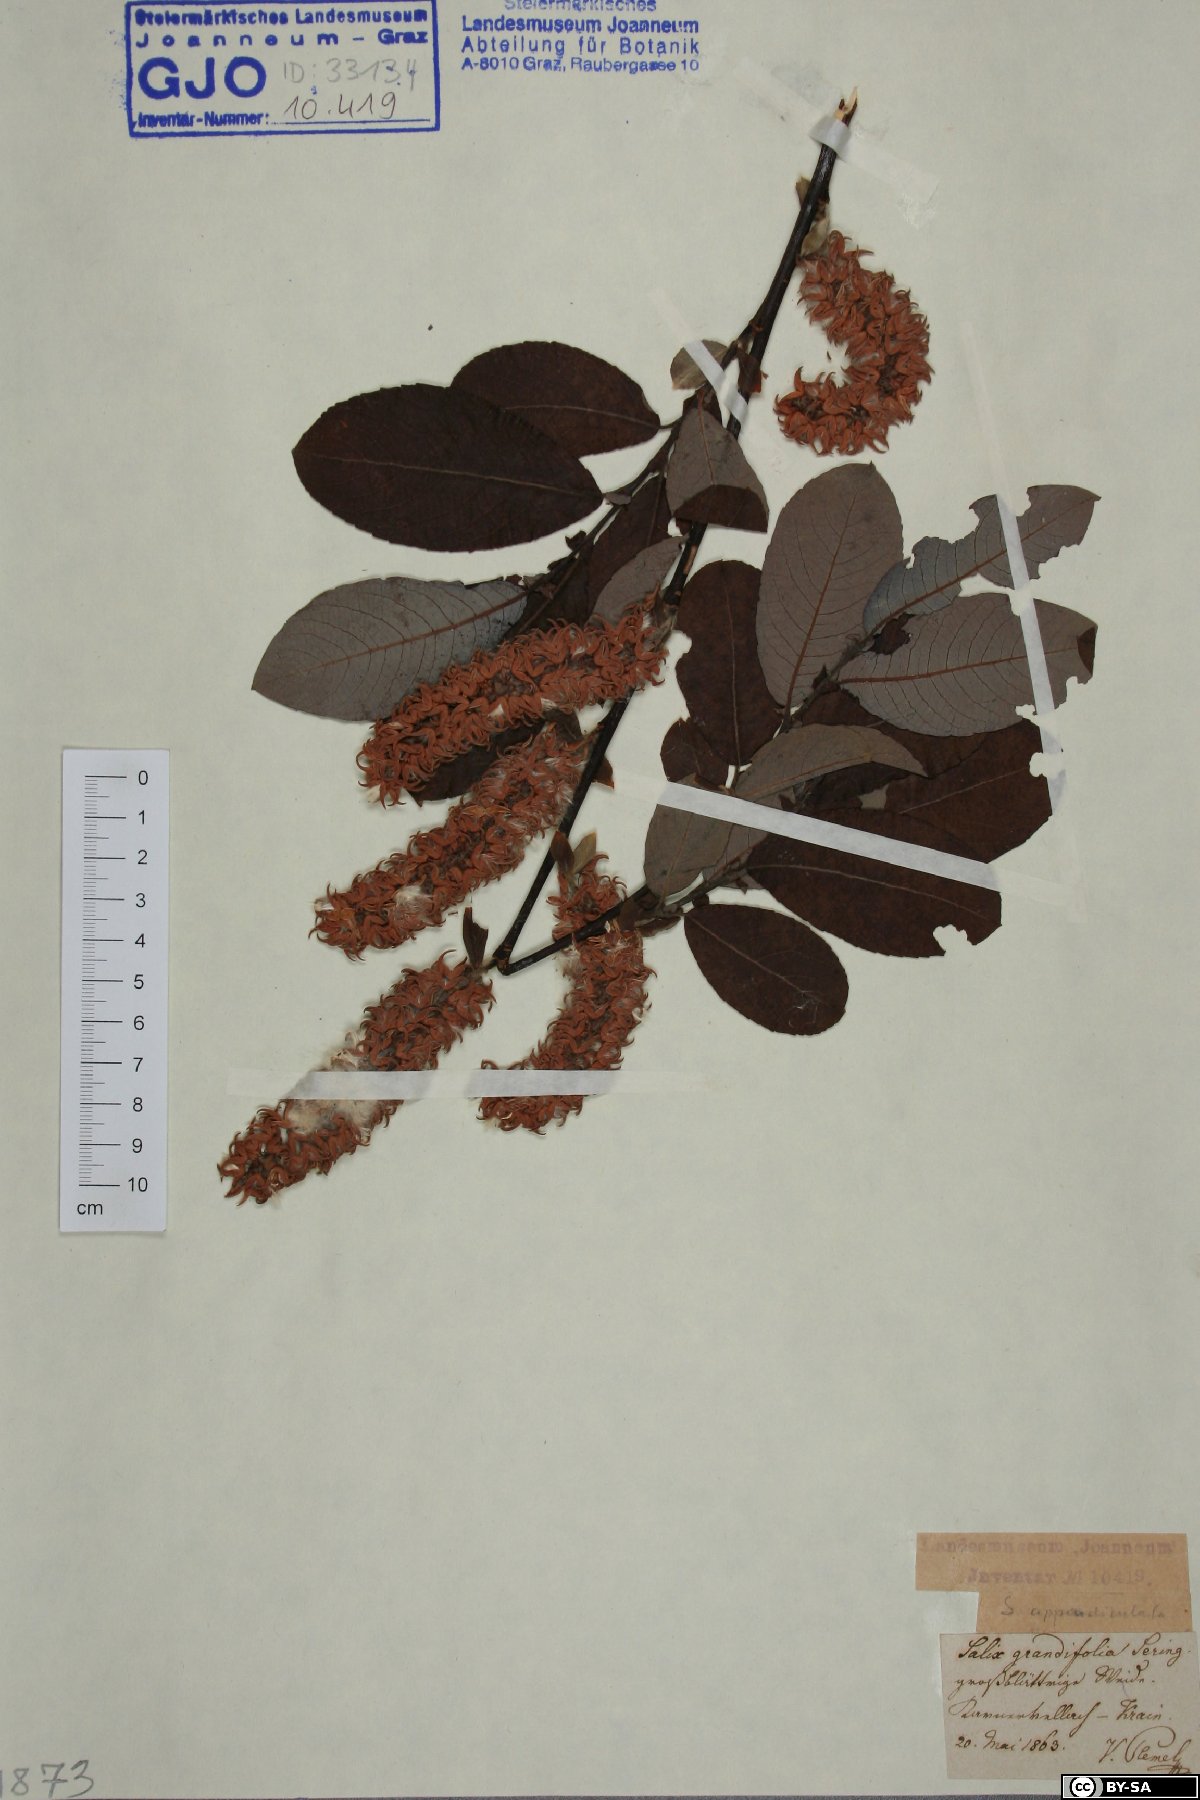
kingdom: Plantae
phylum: Tracheophyta
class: Magnoliopsida
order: Malpighiales
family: Salicaceae
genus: Salix
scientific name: Salix appendiculata
